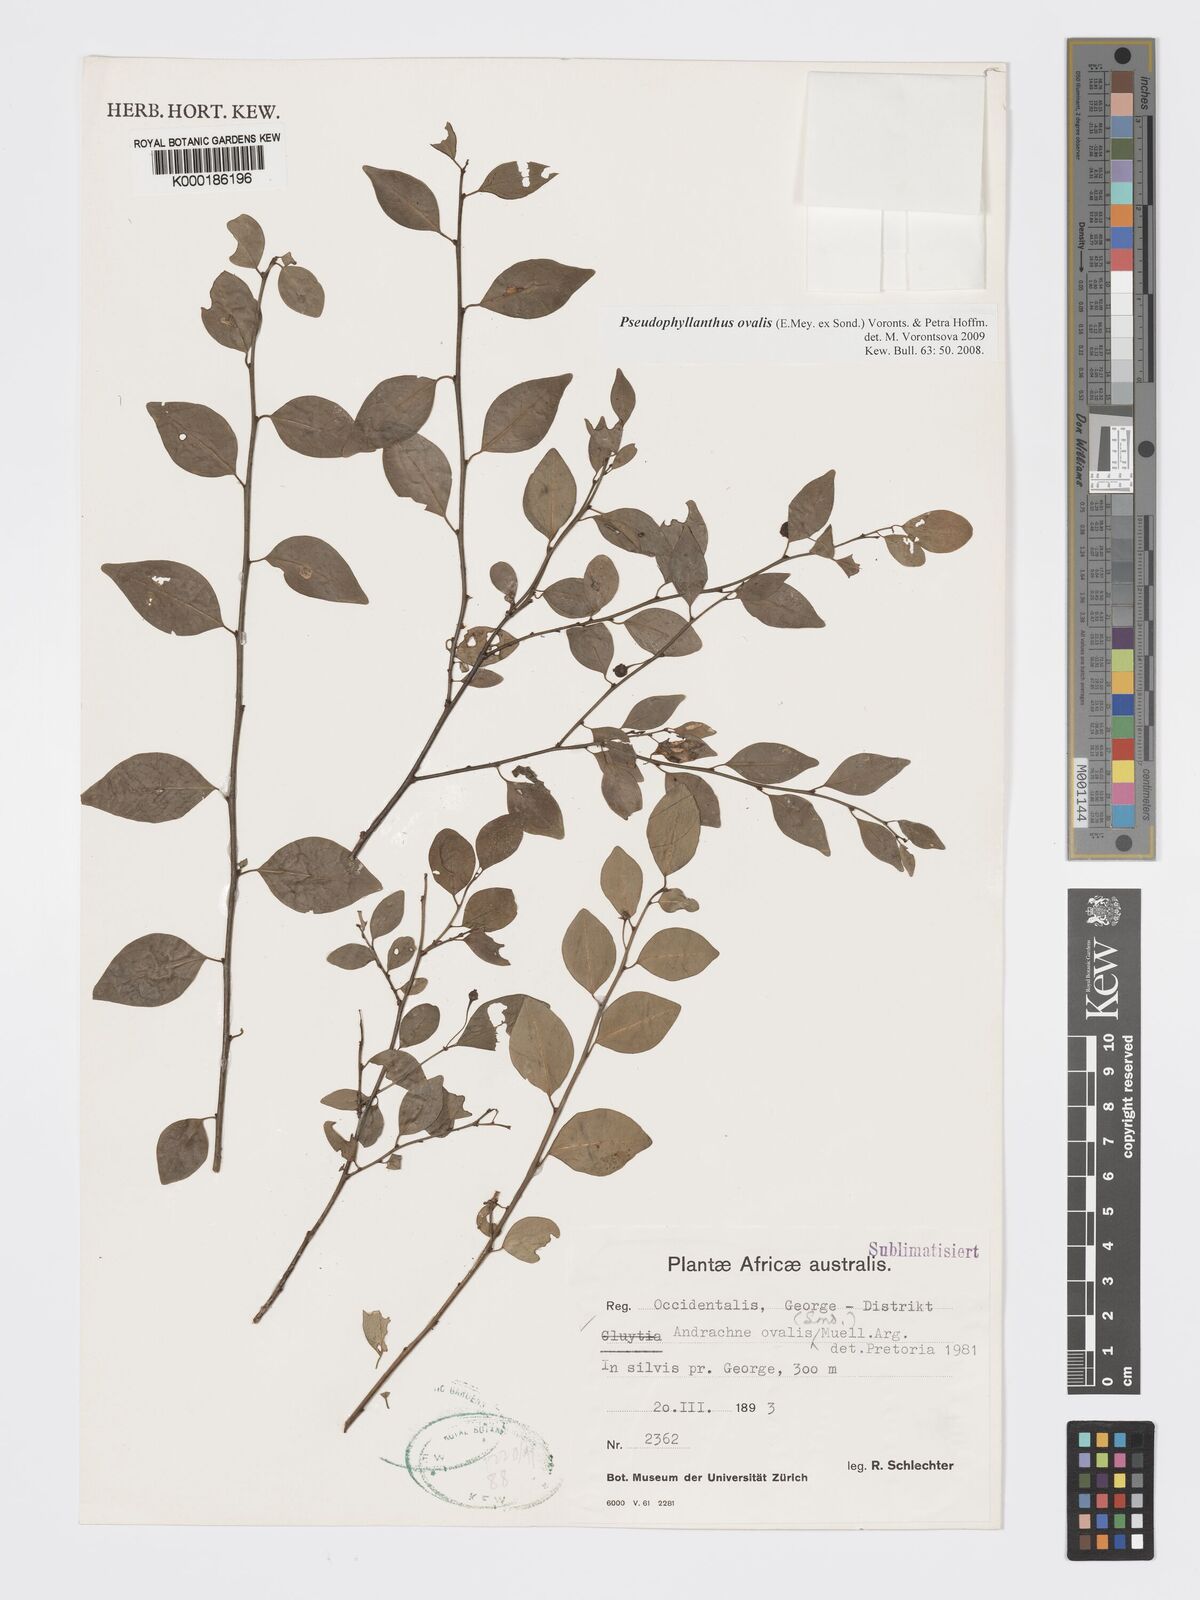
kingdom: Plantae
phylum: Tracheophyta
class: Magnoliopsida
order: Malpighiales
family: Phyllanthaceae
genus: Andrachne
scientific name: Andrachne
